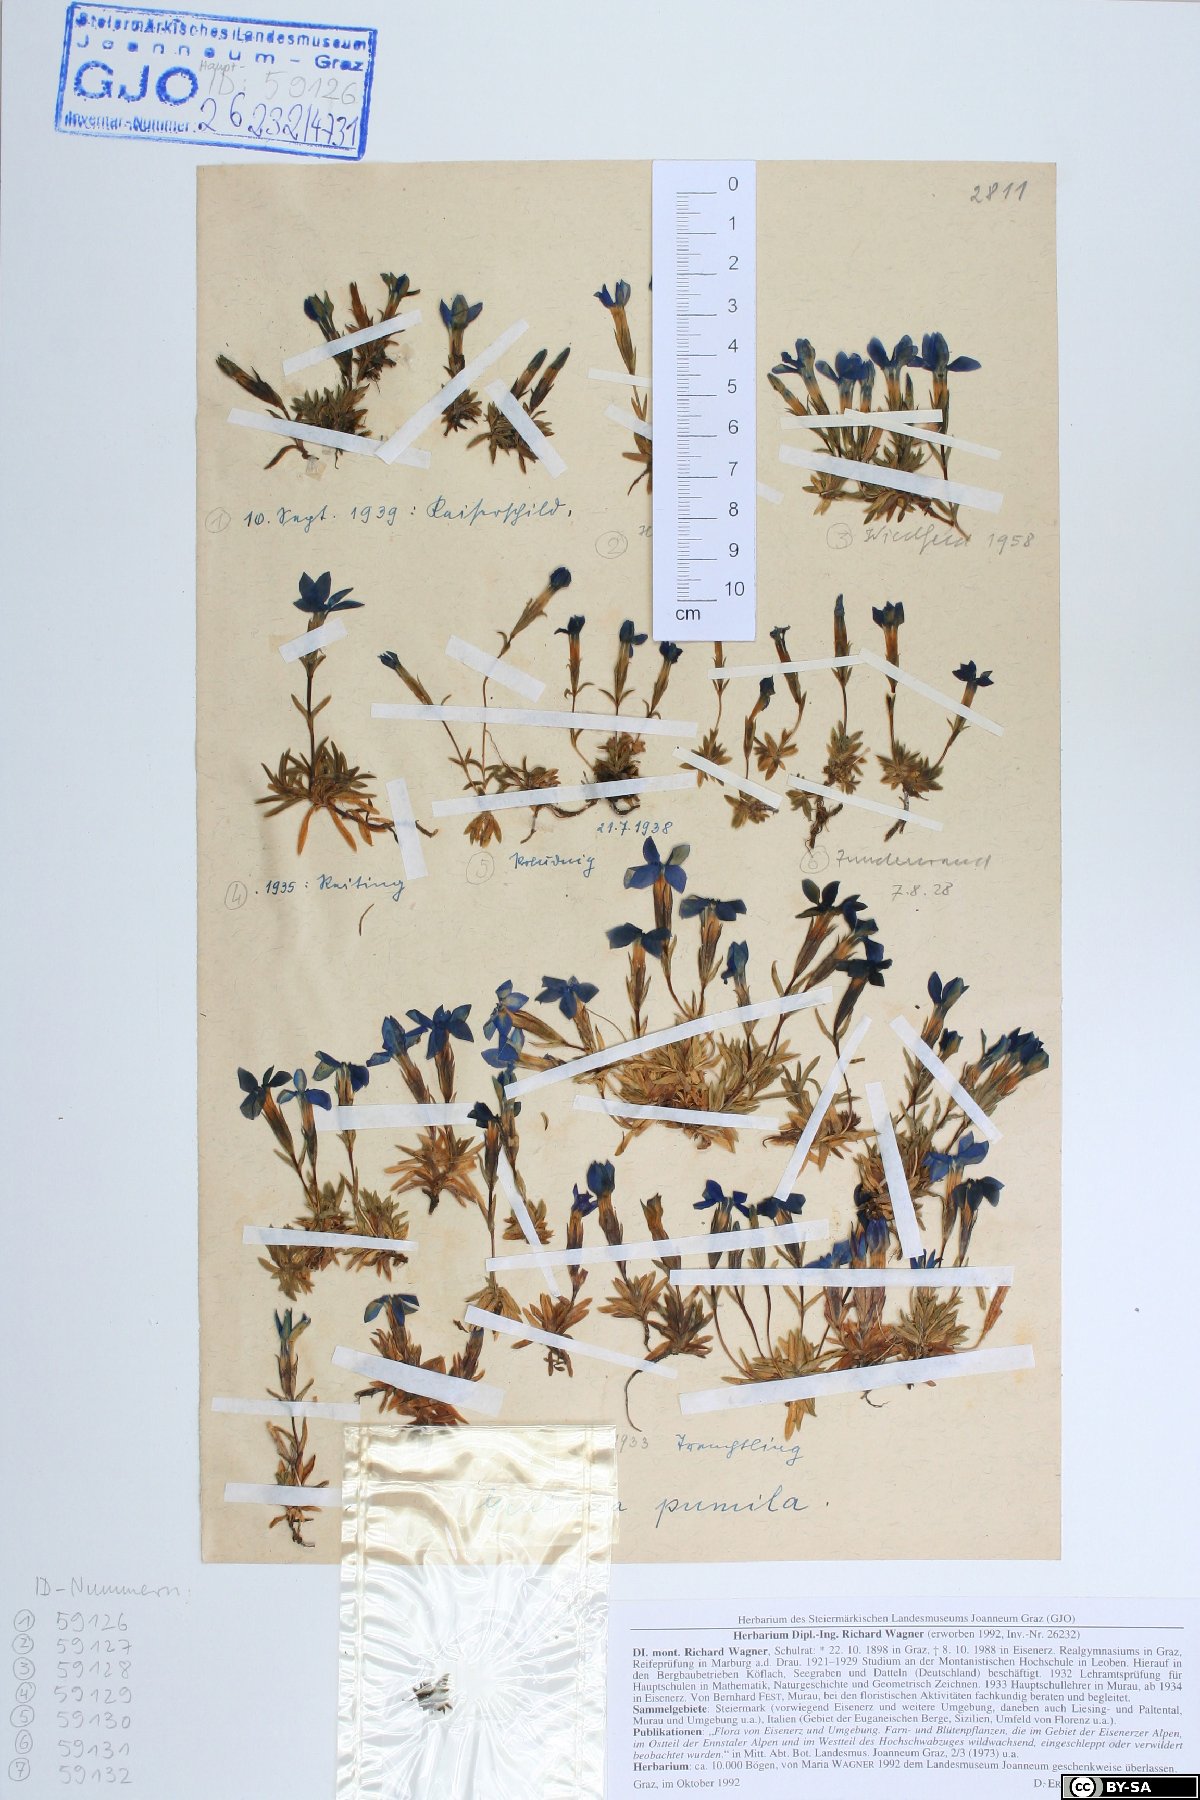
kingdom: Plantae
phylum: Tracheophyta
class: Magnoliopsida
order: Gentianales
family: Gentianaceae
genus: Gentiana
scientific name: Gentiana pumila
